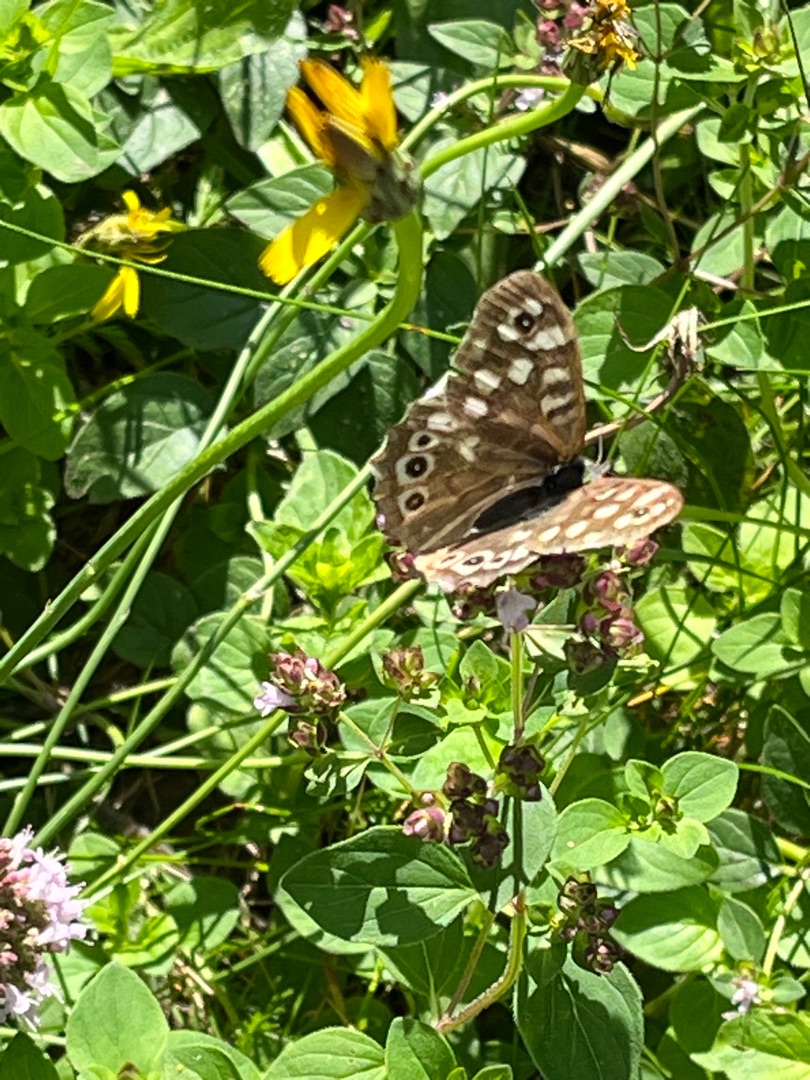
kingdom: Animalia
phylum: Arthropoda
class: Insecta
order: Lepidoptera
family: Nymphalidae
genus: Pararge
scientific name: Pararge aegeria
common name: Skovrandøje
